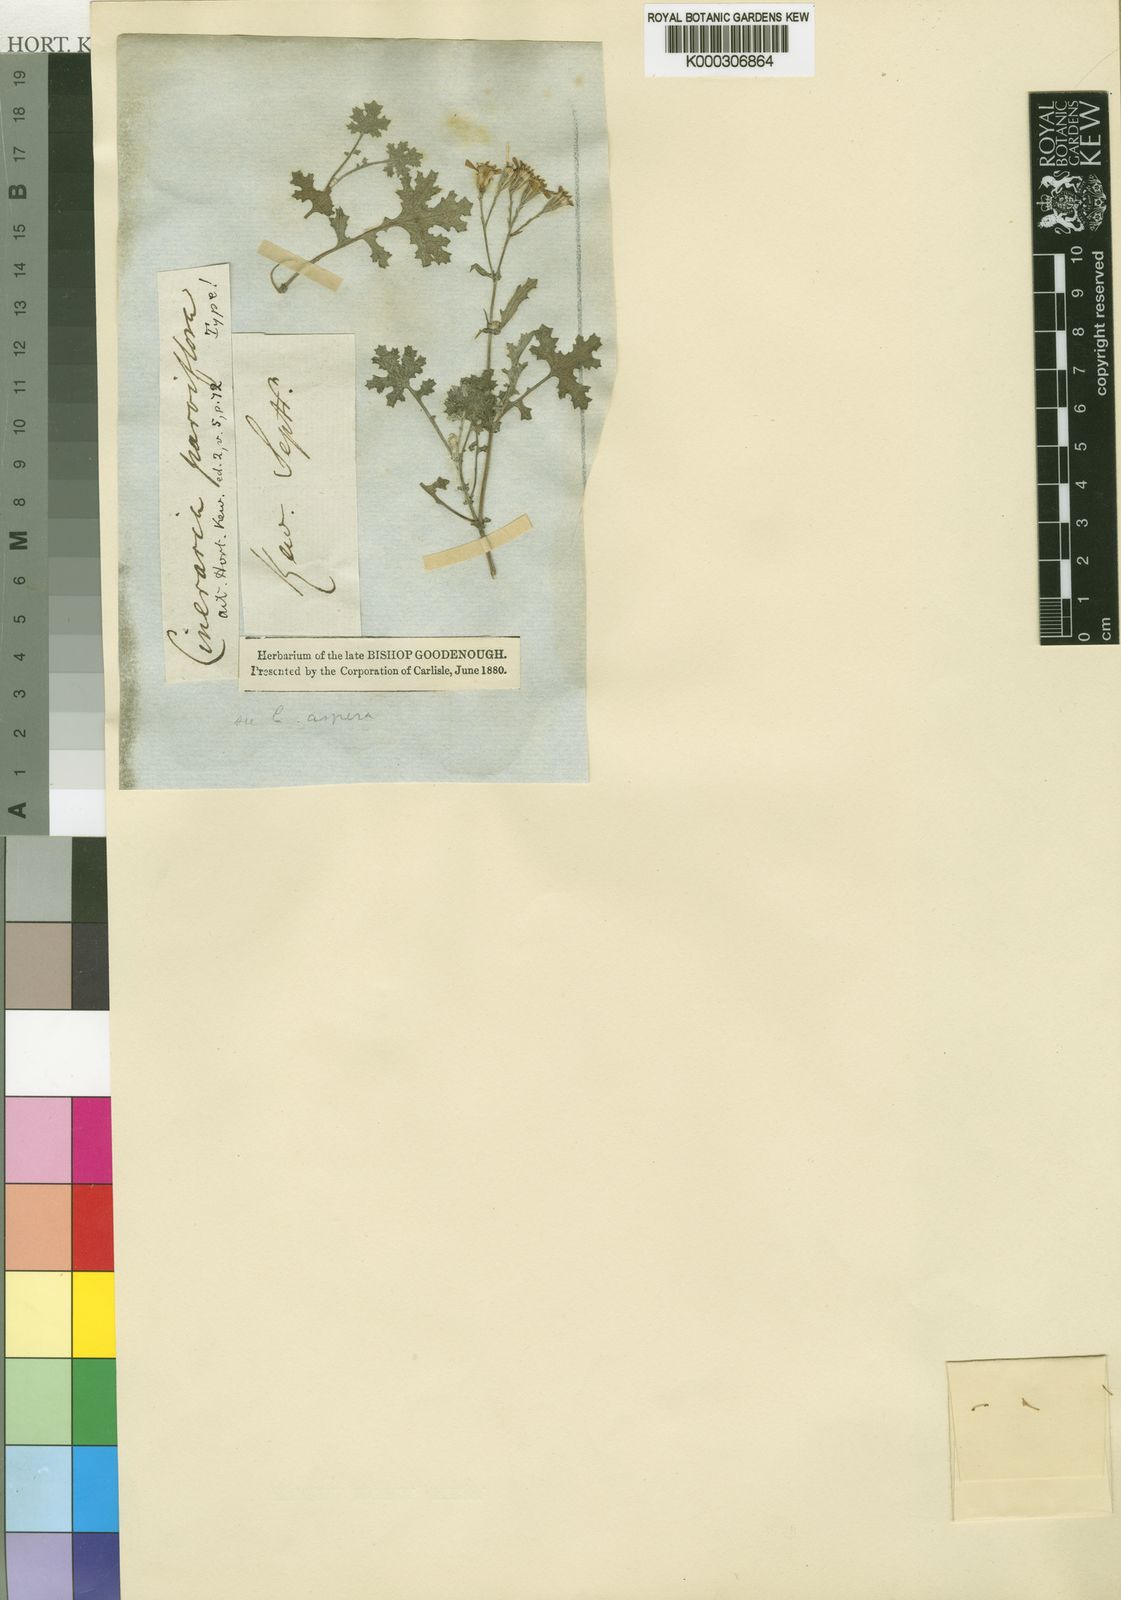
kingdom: Plantae
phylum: Tracheophyta
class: Magnoliopsida
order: Asterales
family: Asteraceae
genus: Cineraria
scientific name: Cineraria canescens
